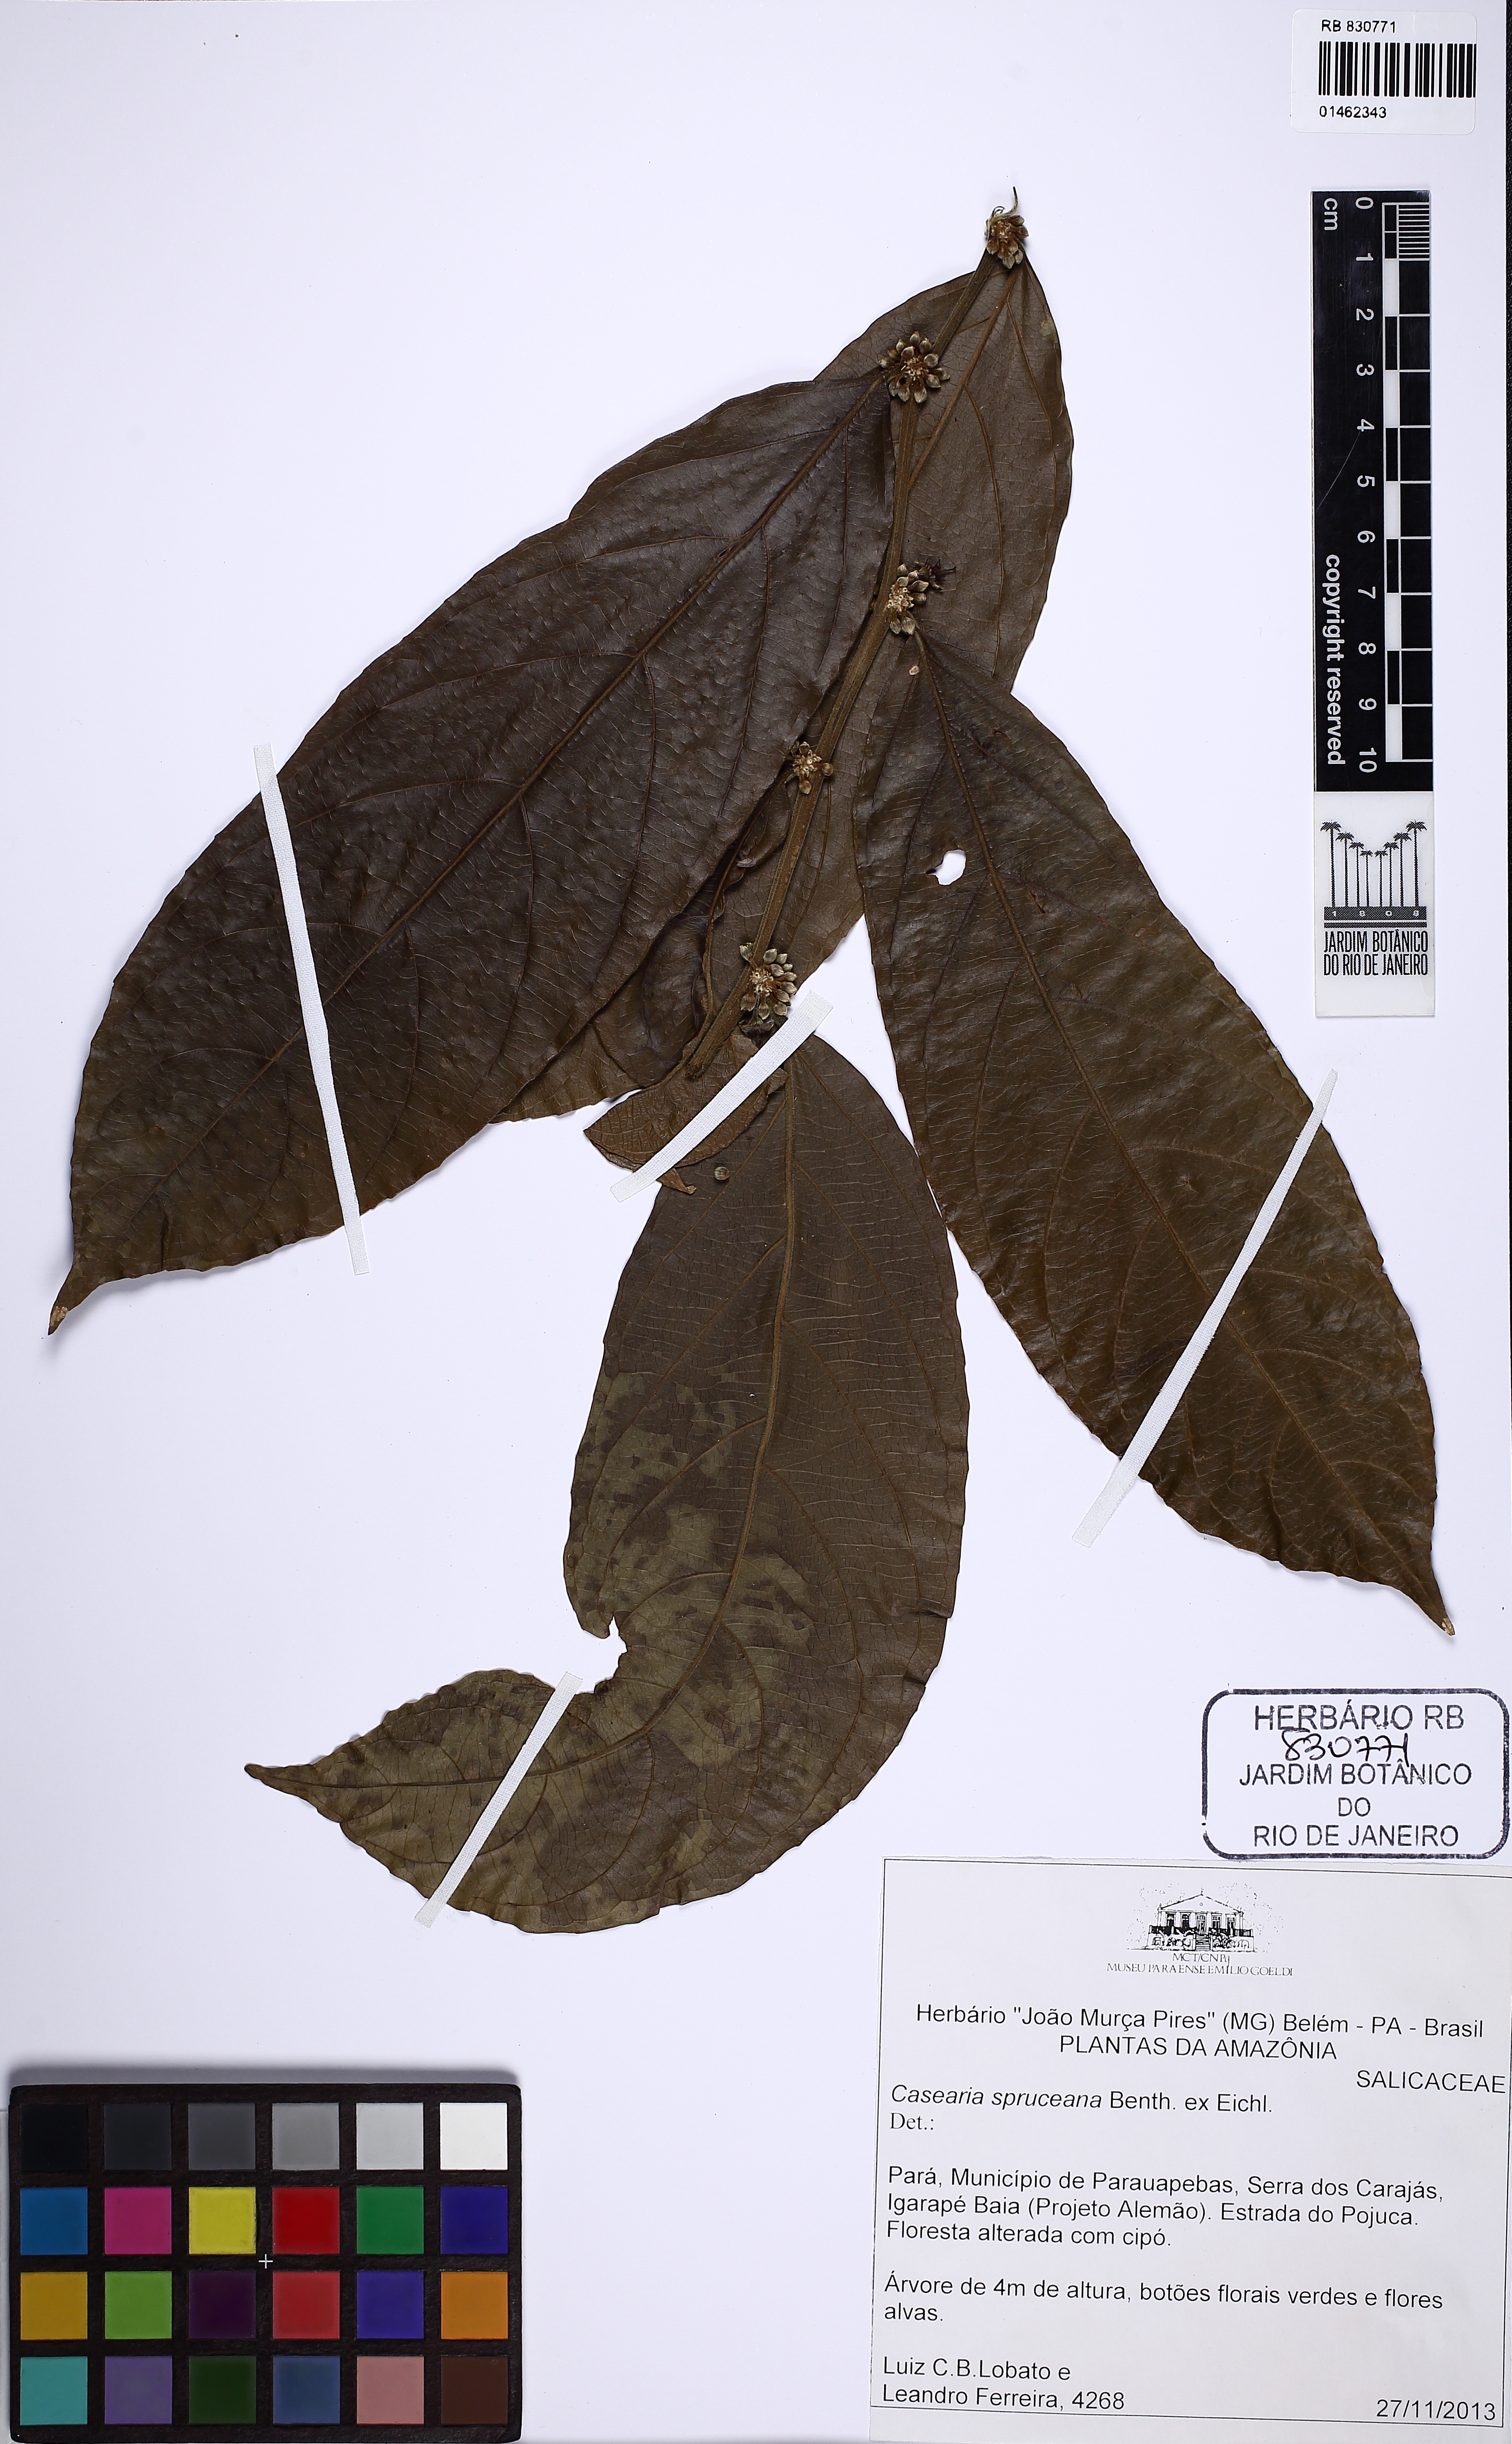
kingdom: Plantae
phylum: Tracheophyta
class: Magnoliopsida
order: Malpighiales
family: Salicaceae
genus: Piparea
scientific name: Piparea spruceana
